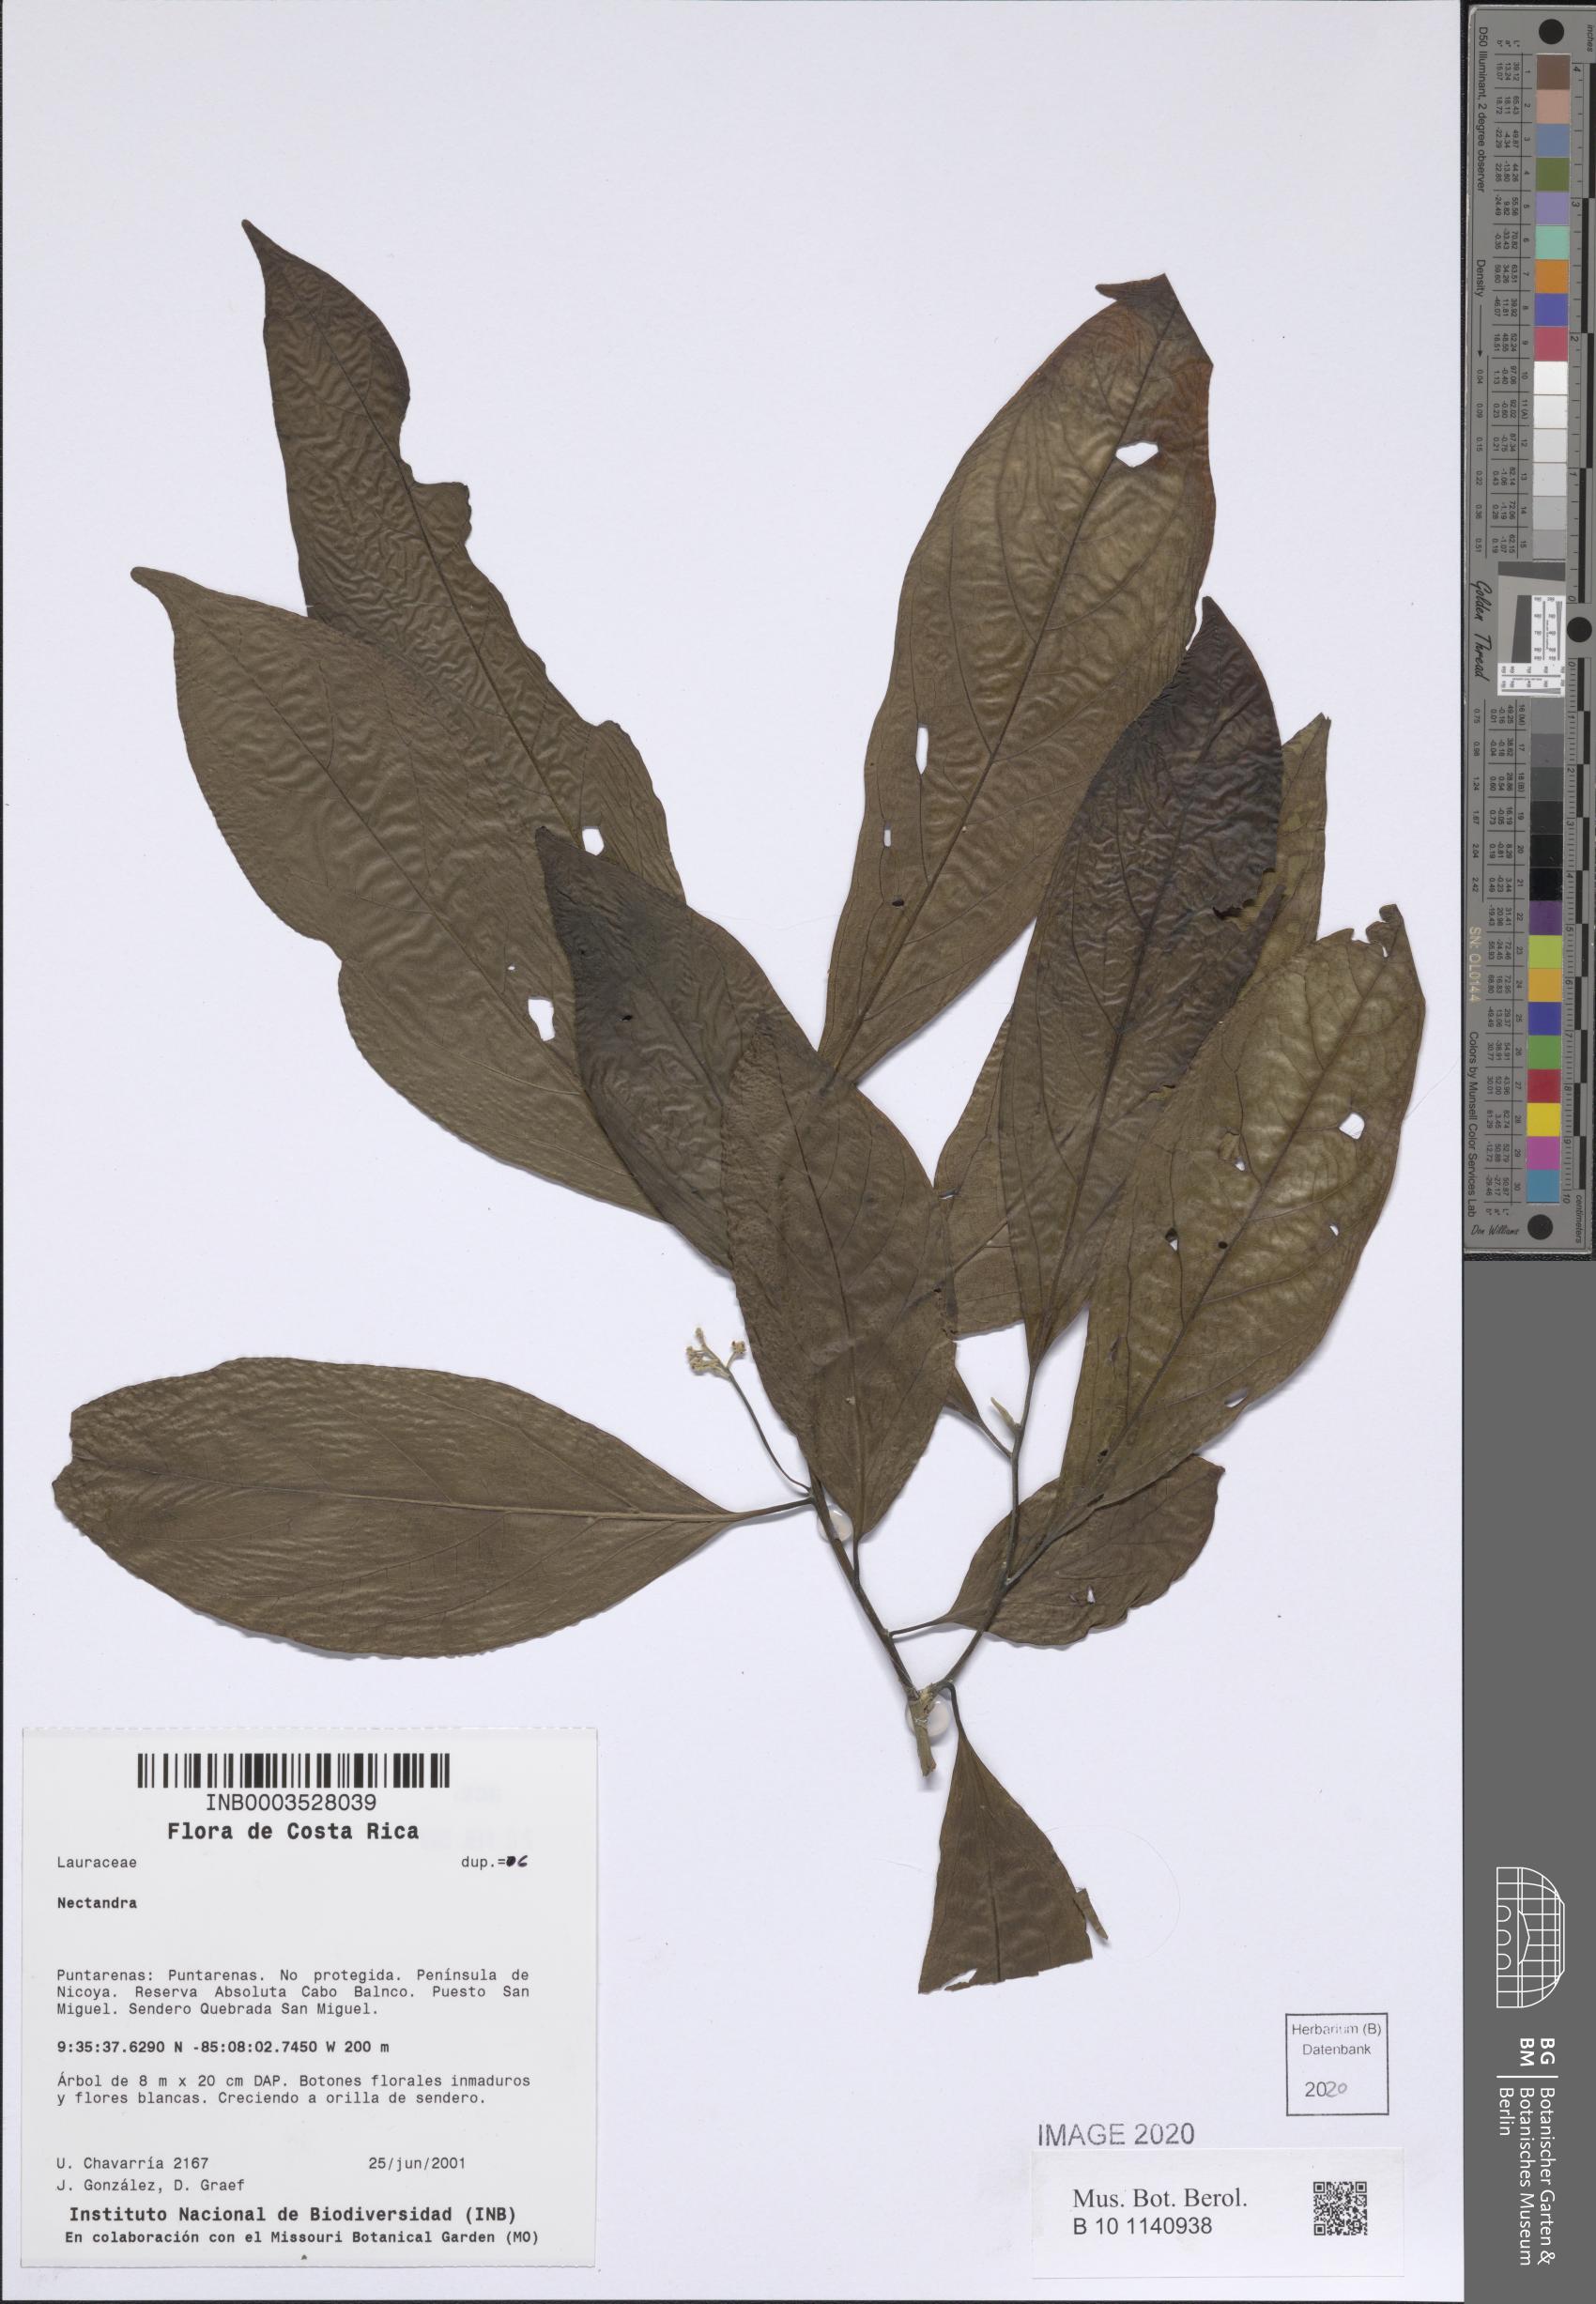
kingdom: Plantae
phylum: Tracheophyta
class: Magnoliopsida
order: Laurales
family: Lauraceae
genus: Nectandra
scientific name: Nectandra
